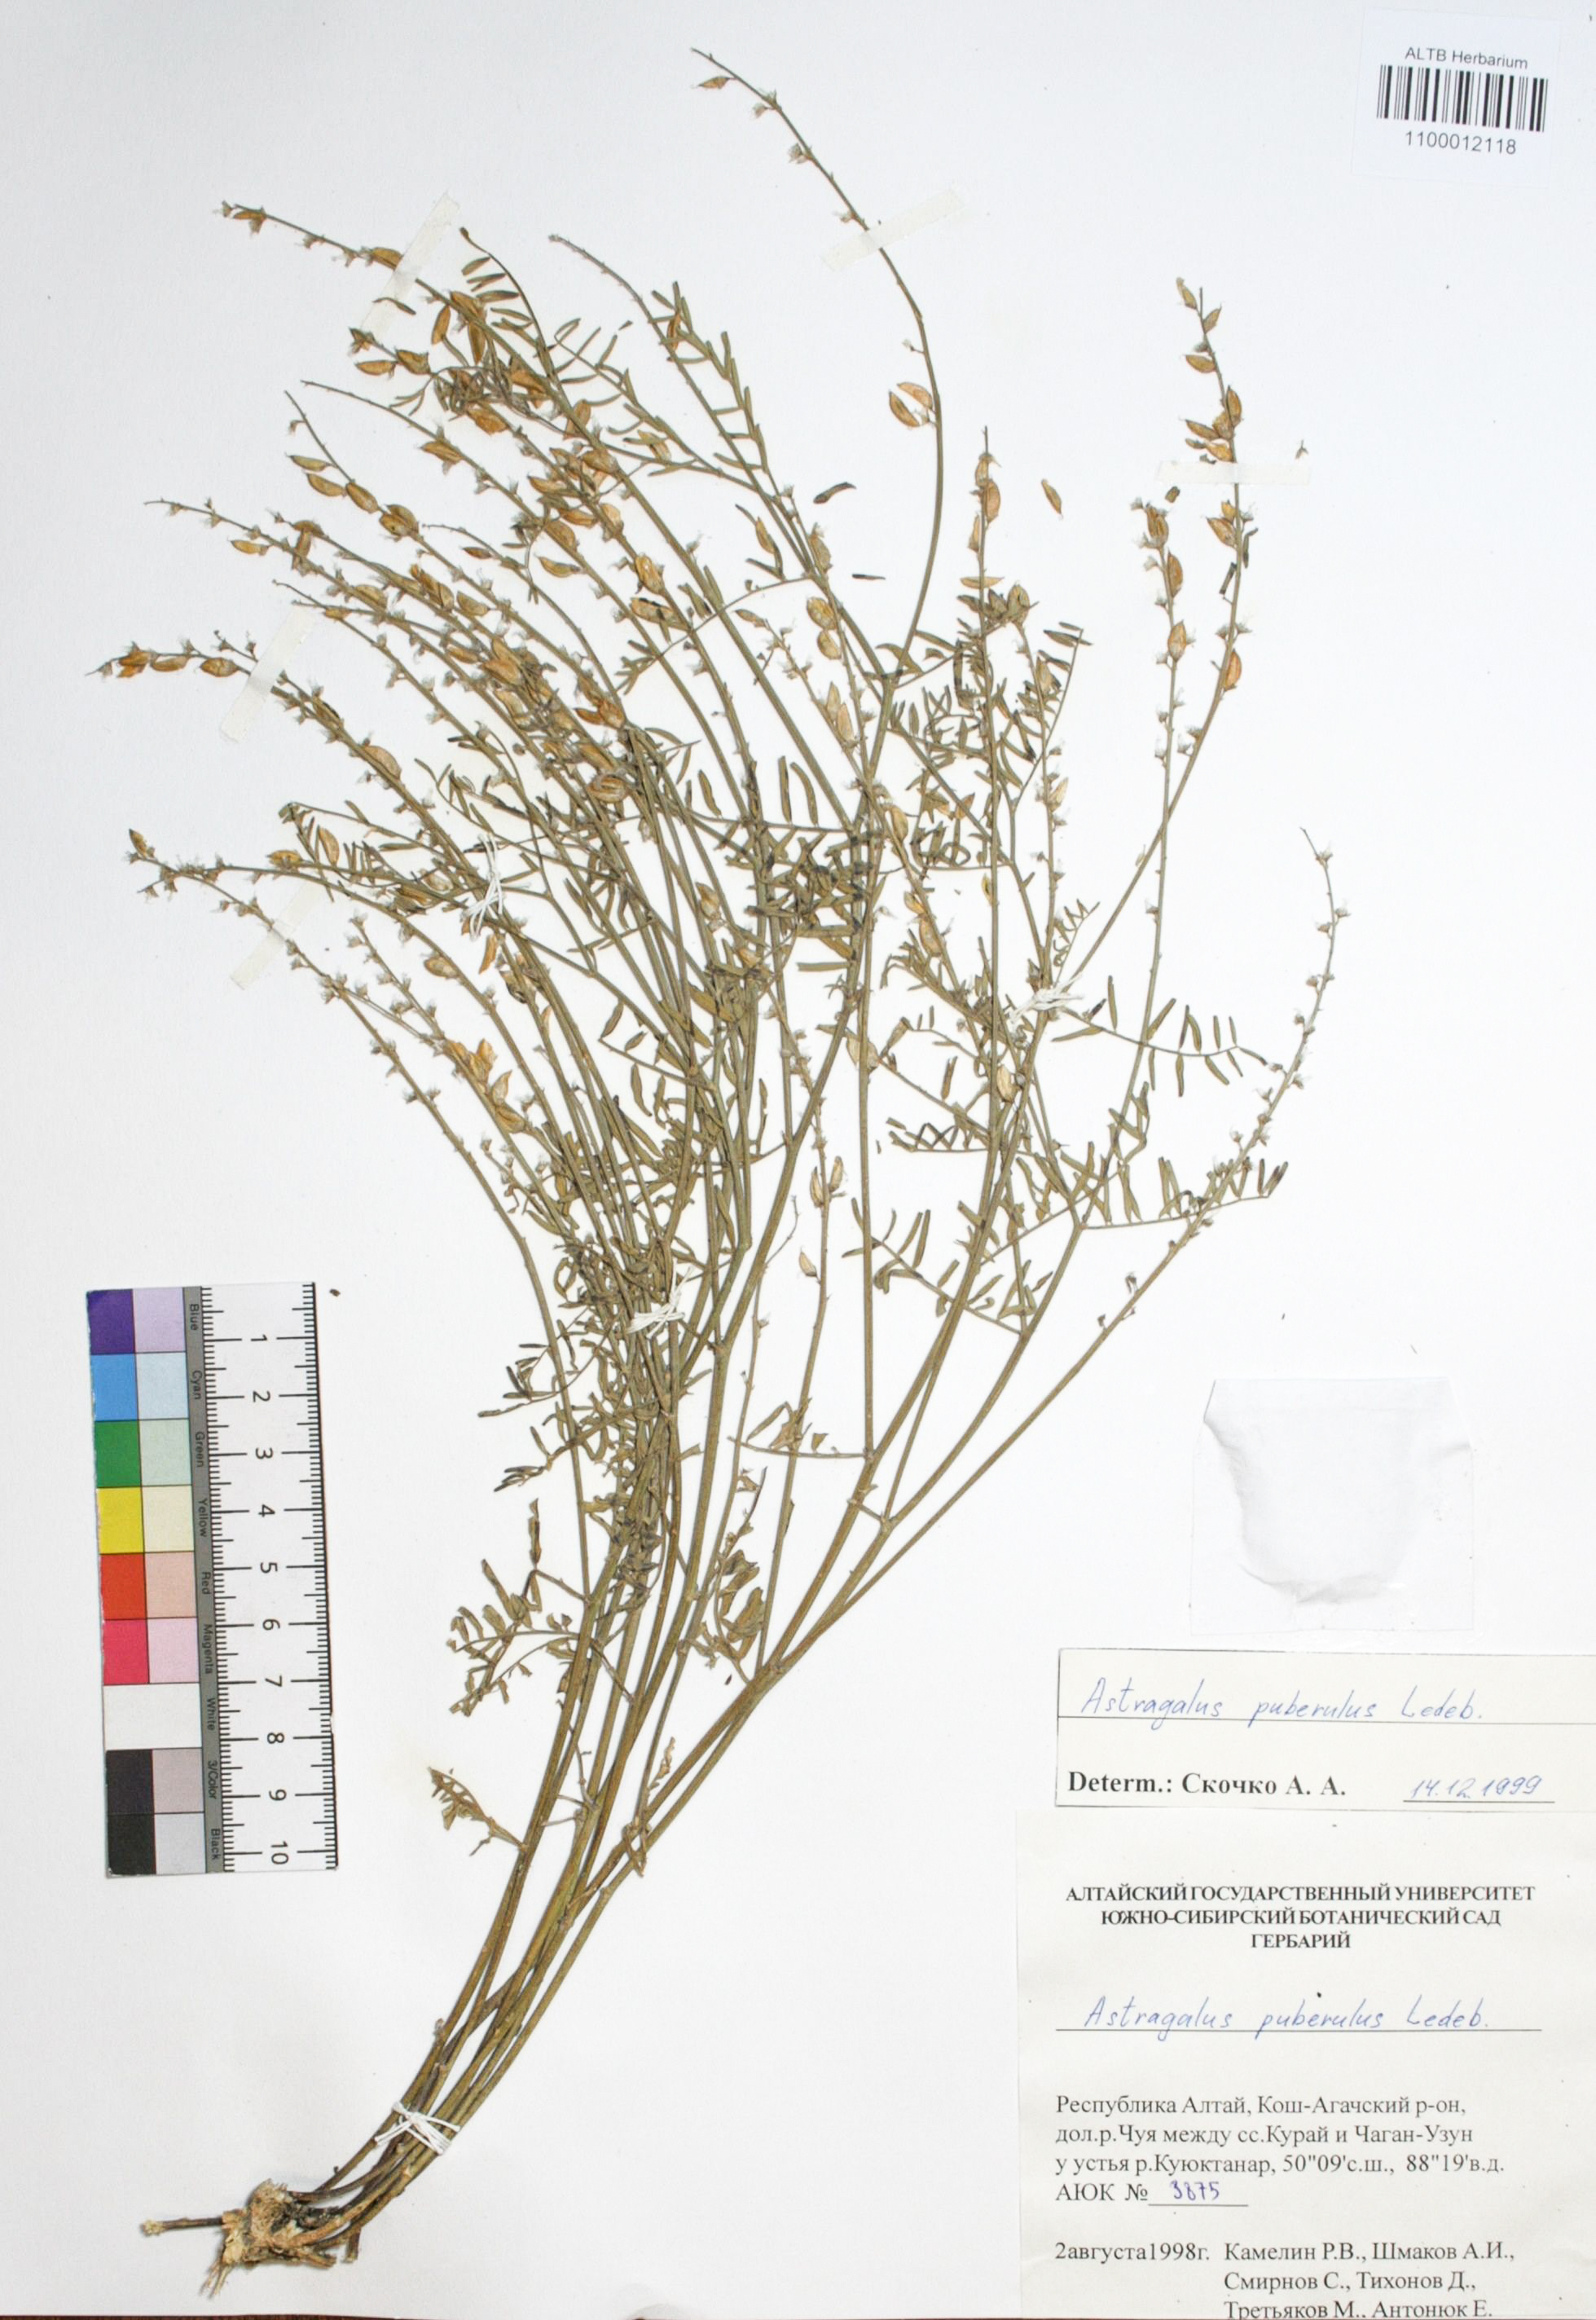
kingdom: Plantae
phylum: Tracheophyta
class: Magnoliopsida
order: Fabales
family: Fabaceae
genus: Astragalus
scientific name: Astragalus puberulus
